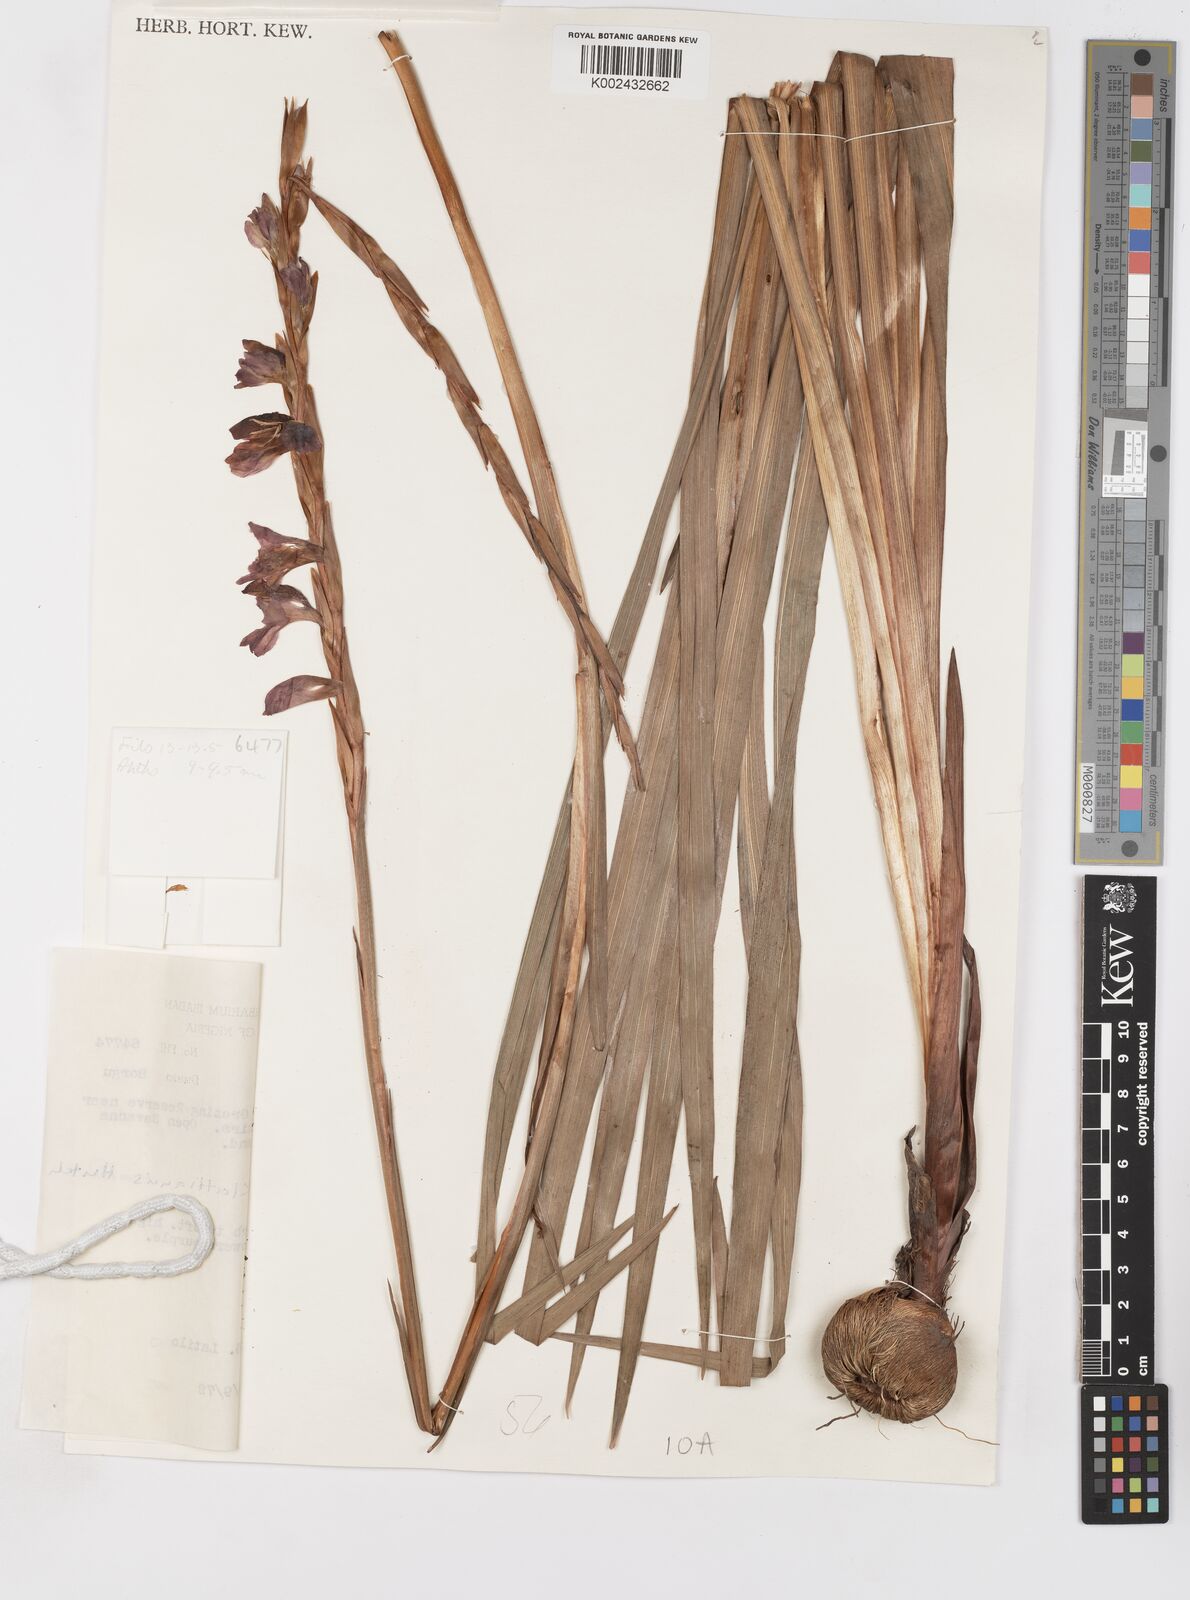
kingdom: Plantae
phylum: Tracheophyta
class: Liliopsida
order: Asparagales
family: Iridaceae
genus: Gladiolus
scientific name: Gladiolus gregarius
